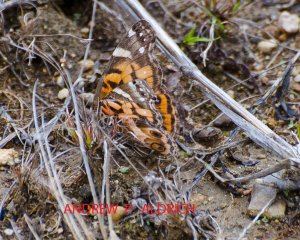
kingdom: Animalia
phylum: Arthropoda
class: Insecta
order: Lepidoptera
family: Nymphalidae
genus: Vanessa
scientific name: Vanessa virginiensis
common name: American Lady
